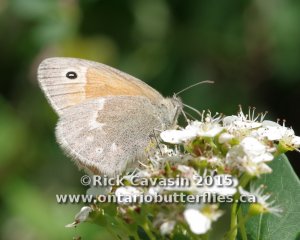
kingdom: Animalia
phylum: Arthropoda
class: Insecta
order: Lepidoptera
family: Nymphalidae
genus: Coenonympha
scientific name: Coenonympha tullia
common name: Large Heath
